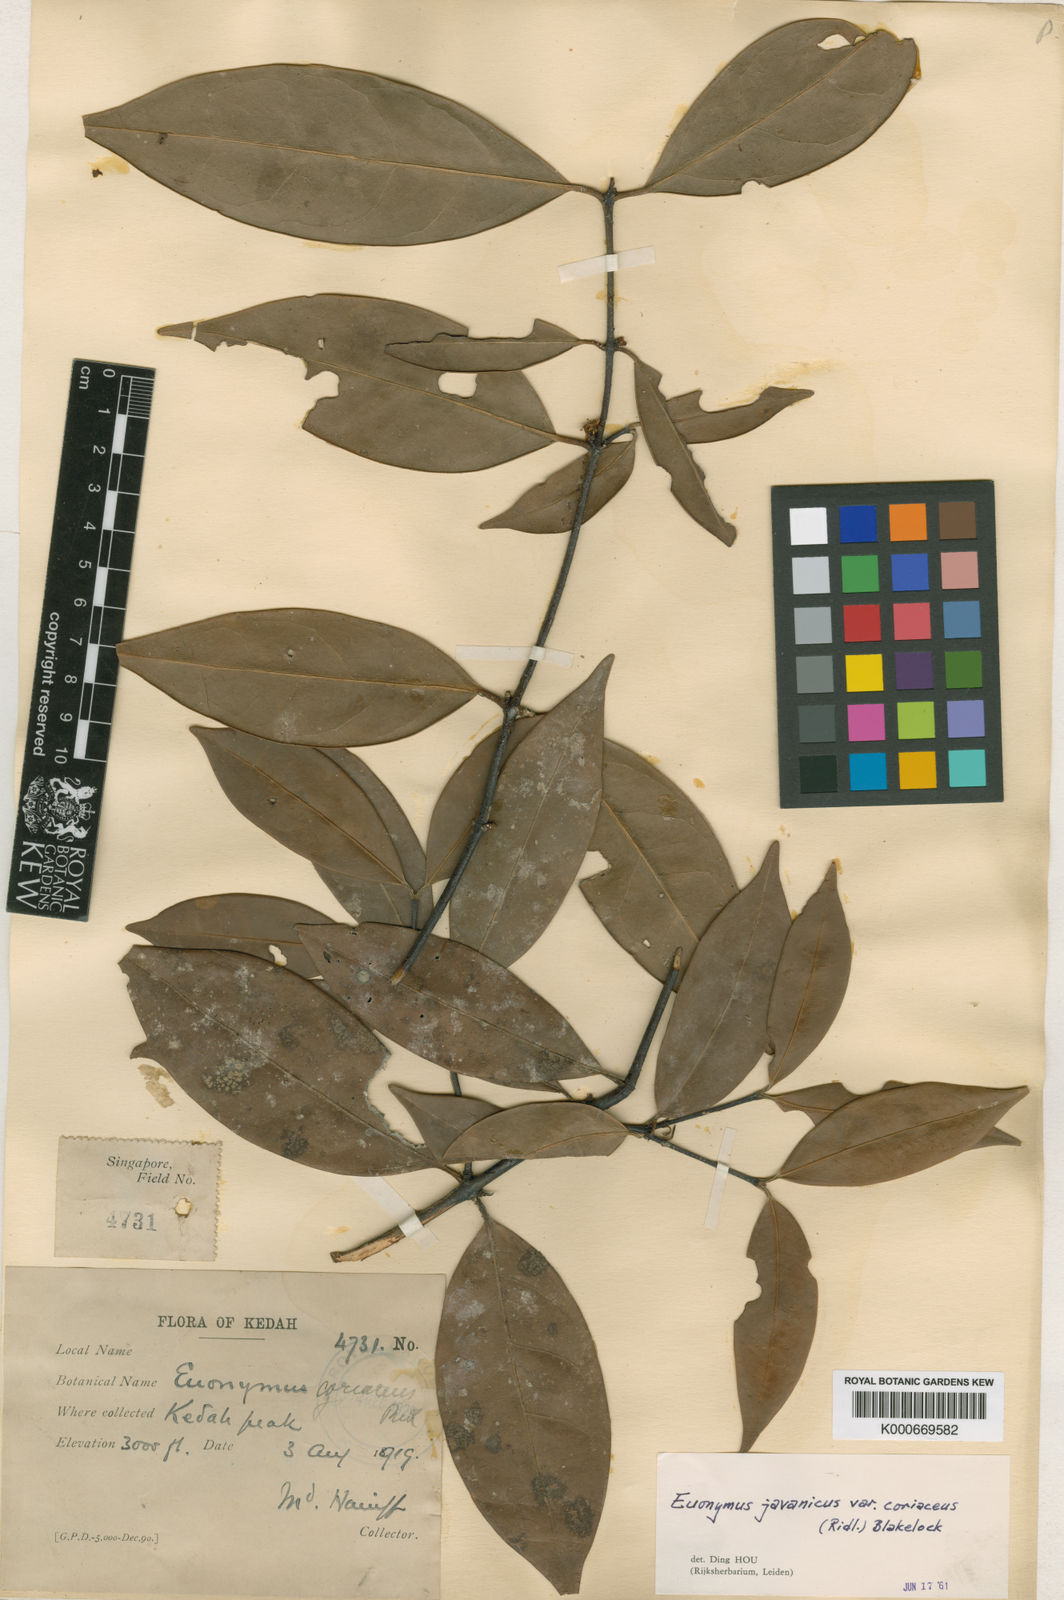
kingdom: Plantae
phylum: Tracheophyta
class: Magnoliopsida
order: Celastrales
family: Celastraceae
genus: Euonymus
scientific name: Euonymus indicus
